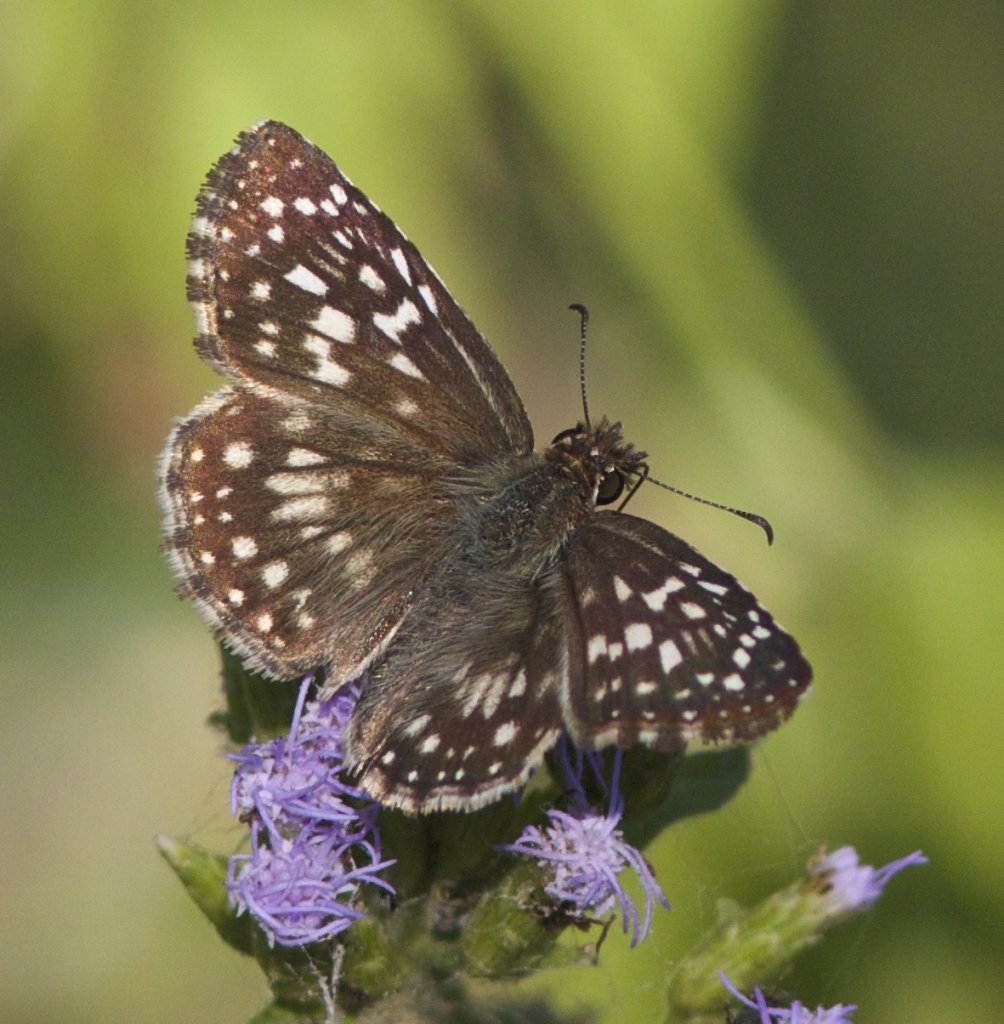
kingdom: Animalia
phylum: Arthropoda
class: Insecta
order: Lepidoptera
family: Hesperiidae
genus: Pyrgus
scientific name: Pyrgus oileus
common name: Tropical Checkered-Skipper
